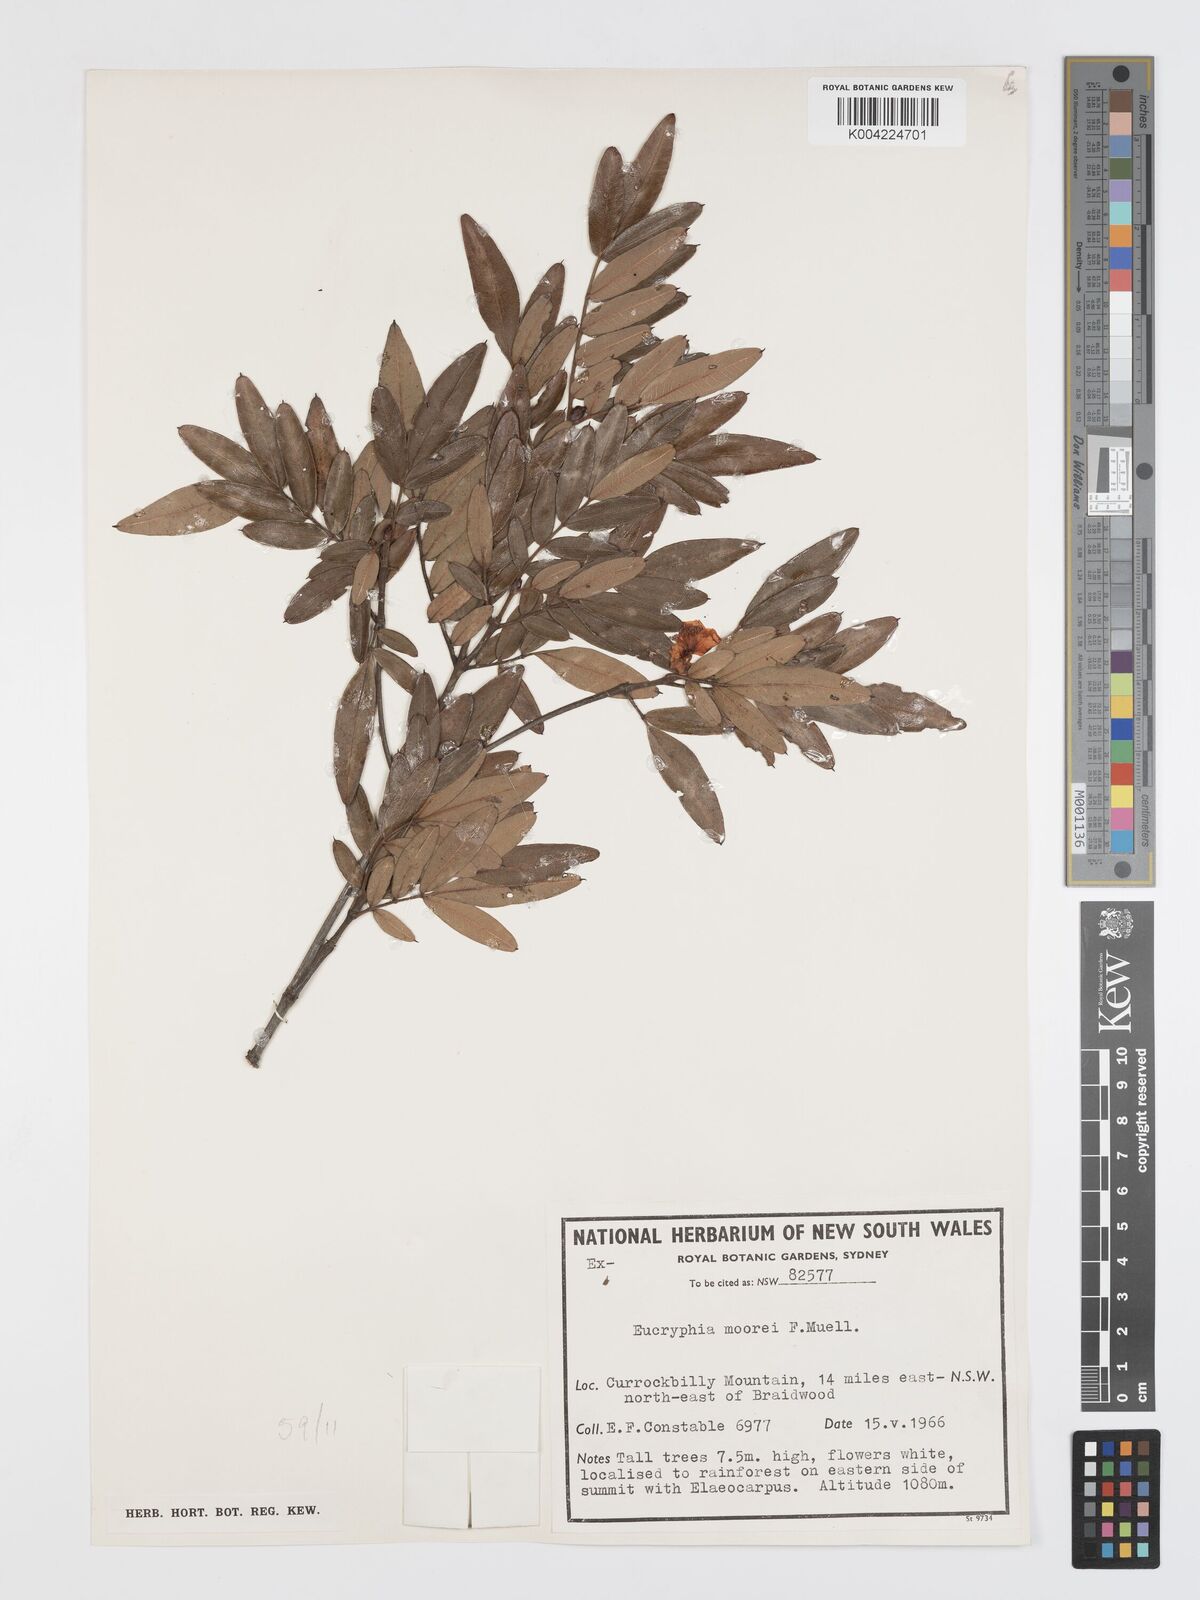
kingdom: Plantae
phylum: Tracheophyta
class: Magnoliopsida
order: Oxalidales
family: Cunoniaceae
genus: Eucryphia
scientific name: Eucryphia moorei
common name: Acacia-plum
